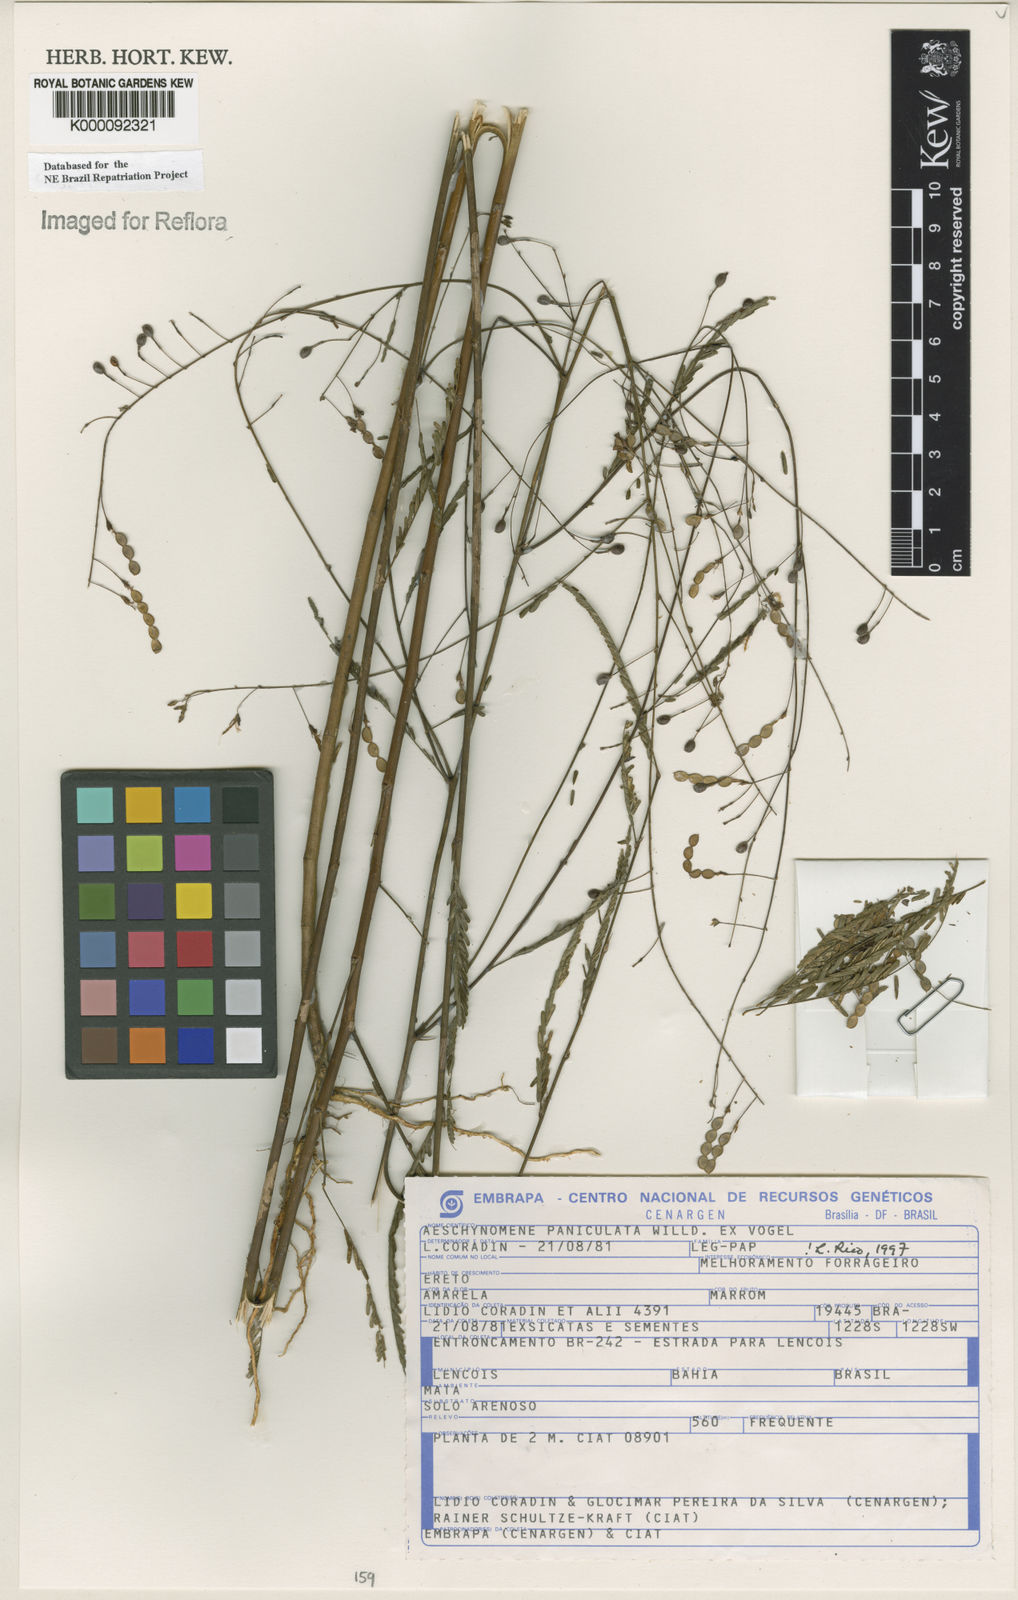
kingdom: Plantae
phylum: Tracheophyta
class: Magnoliopsida
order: Fabales
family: Fabaceae
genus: Ctenodon
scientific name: Ctenodon paniculatus
